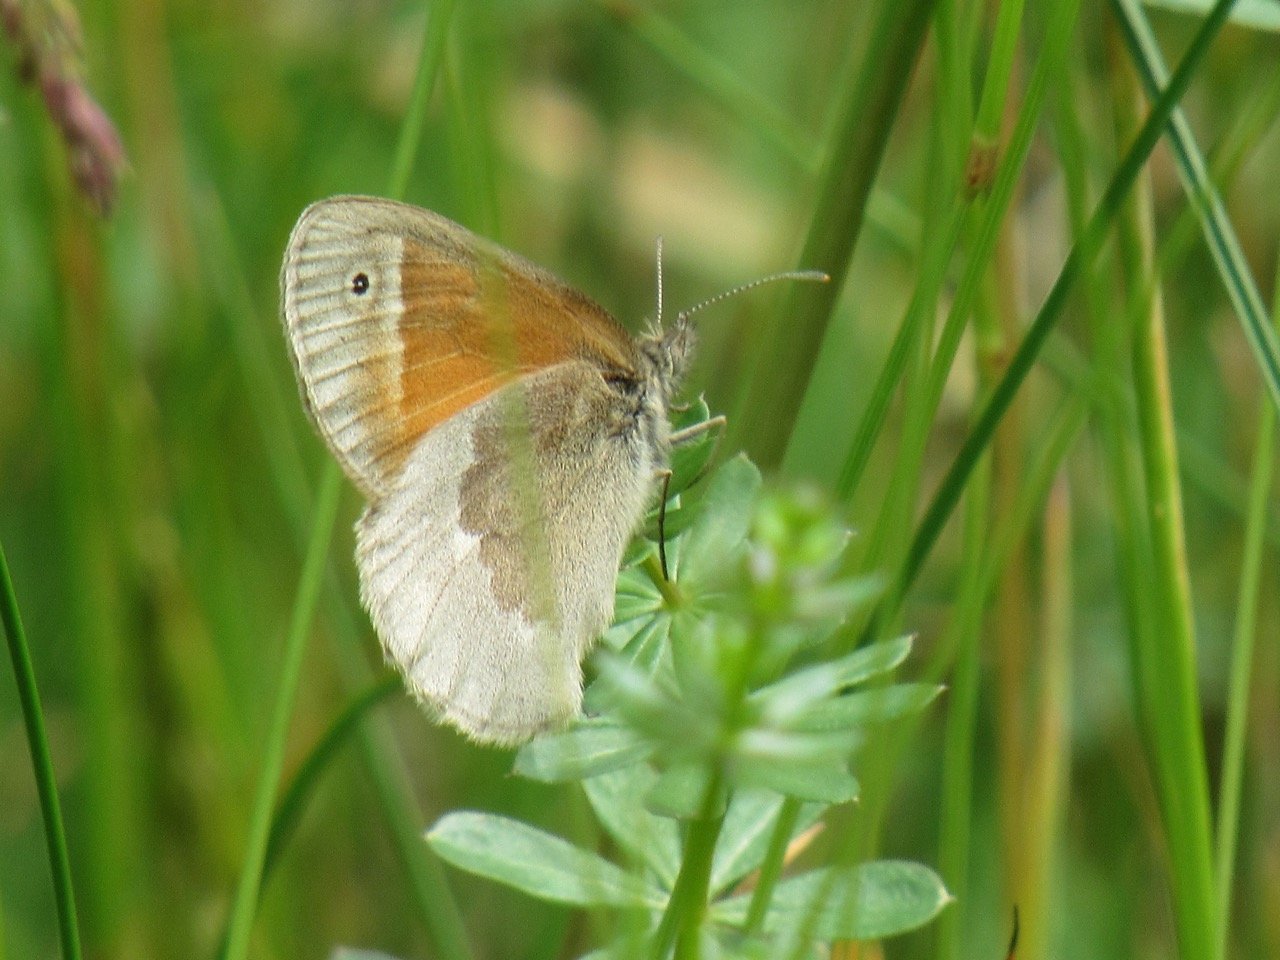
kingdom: Animalia
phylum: Arthropoda
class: Insecta
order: Lepidoptera
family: Nymphalidae
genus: Coenonympha
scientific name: Coenonympha tullia
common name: Large Heath
